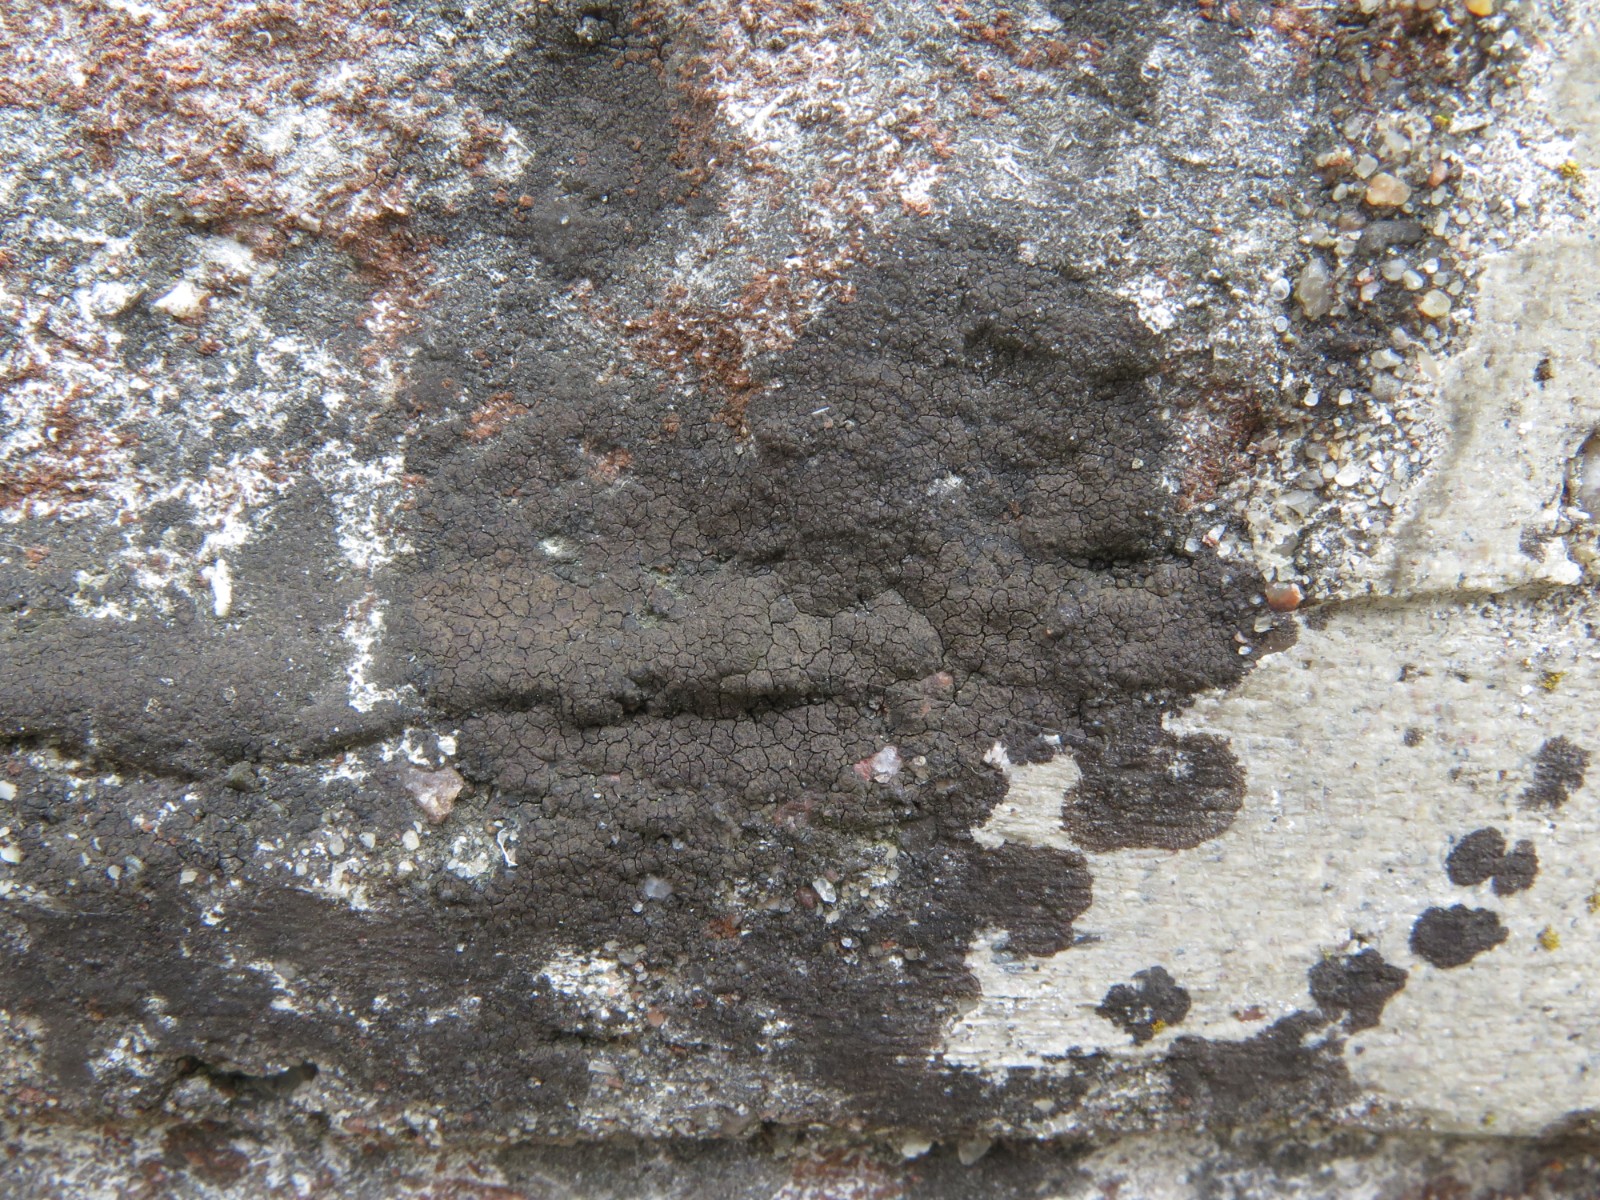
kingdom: Fungi
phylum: Ascomycota
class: Eurotiomycetes
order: Verrucariales
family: Verrucariaceae
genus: Verrucaria
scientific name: Verrucaria nigrescens
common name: sortbrun vortelav
